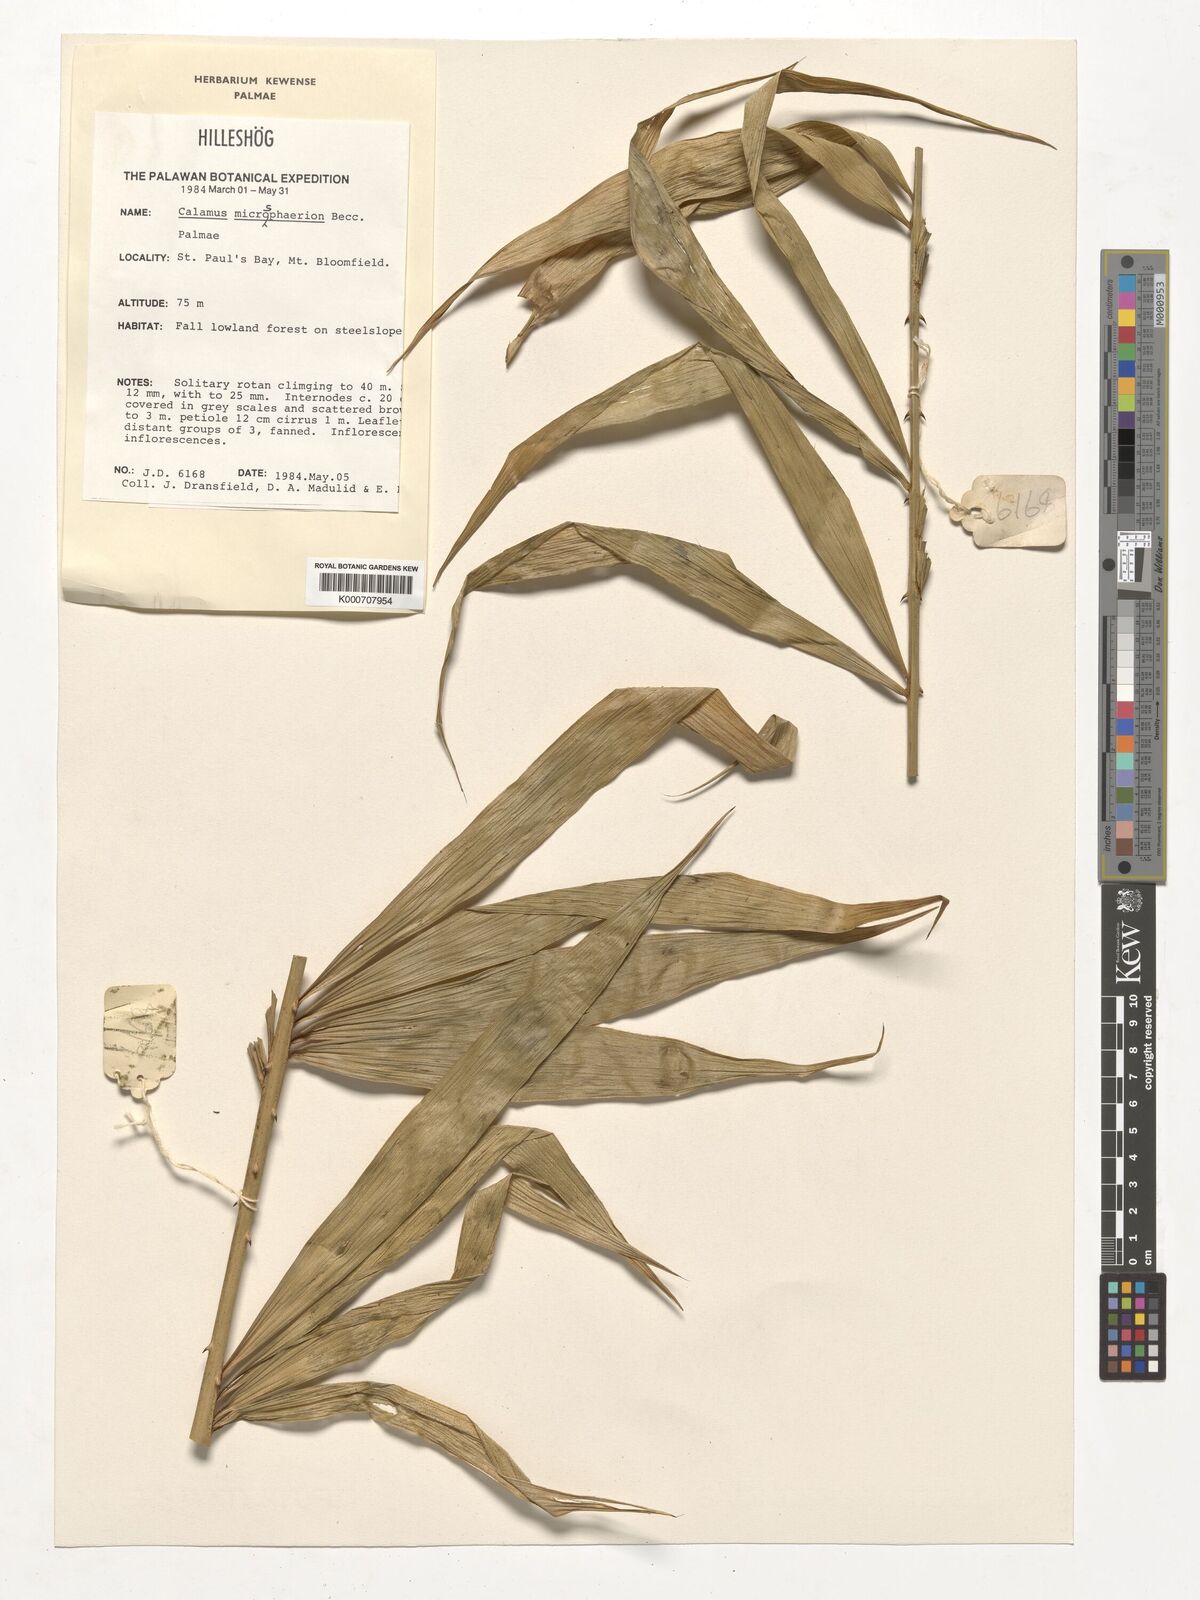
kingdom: Plantae
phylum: Tracheophyta
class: Liliopsida
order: Arecales
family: Arecaceae
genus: Calamus
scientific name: Calamus microsphaerion
